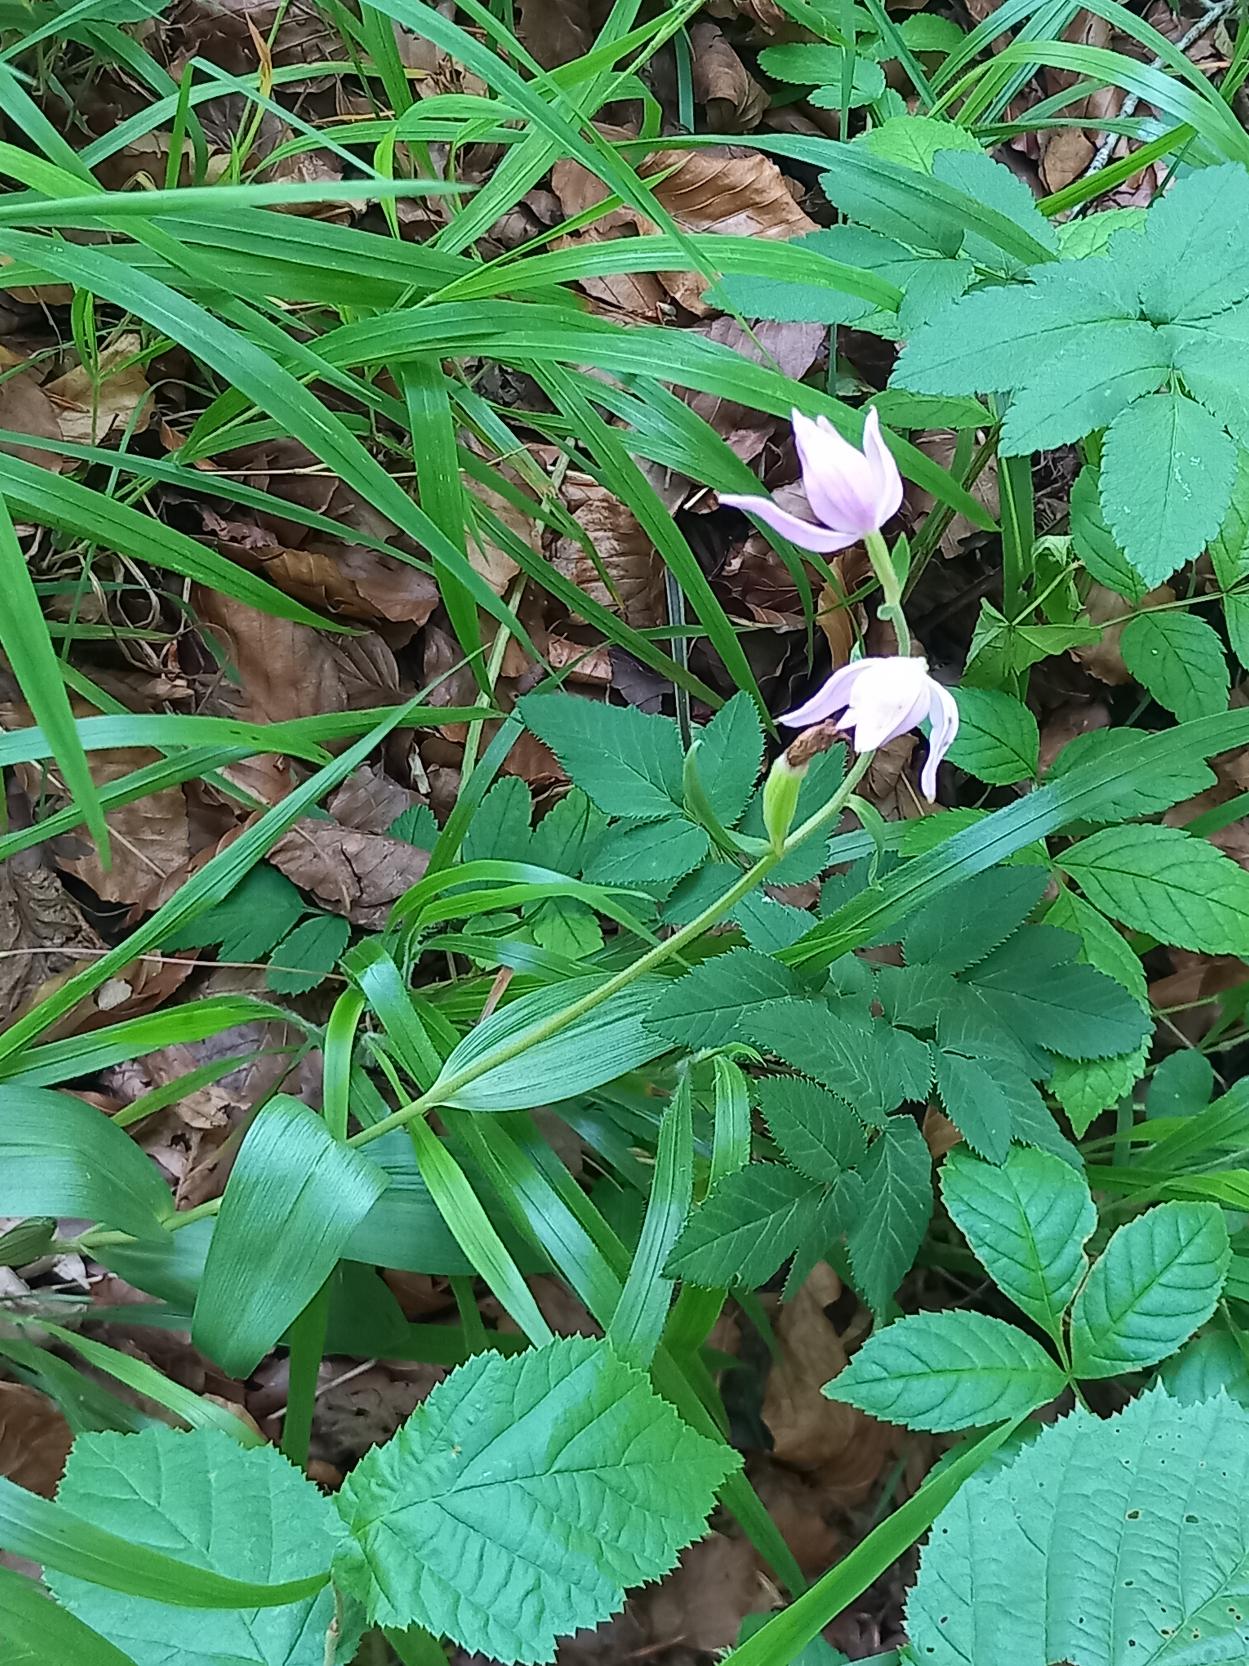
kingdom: Plantae
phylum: Tracheophyta
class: Liliopsida
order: Asparagales
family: Orchidaceae
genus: Cephalanthera
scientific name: Cephalanthera rubra
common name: Rød skovlilje
